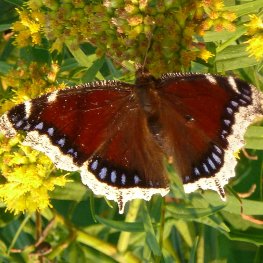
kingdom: Animalia
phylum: Arthropoda
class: Insecta
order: Lepidoptera
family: Nymphalidae
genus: Nymphalis
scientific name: Nymphalis antiopa
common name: Mourning Cloak
